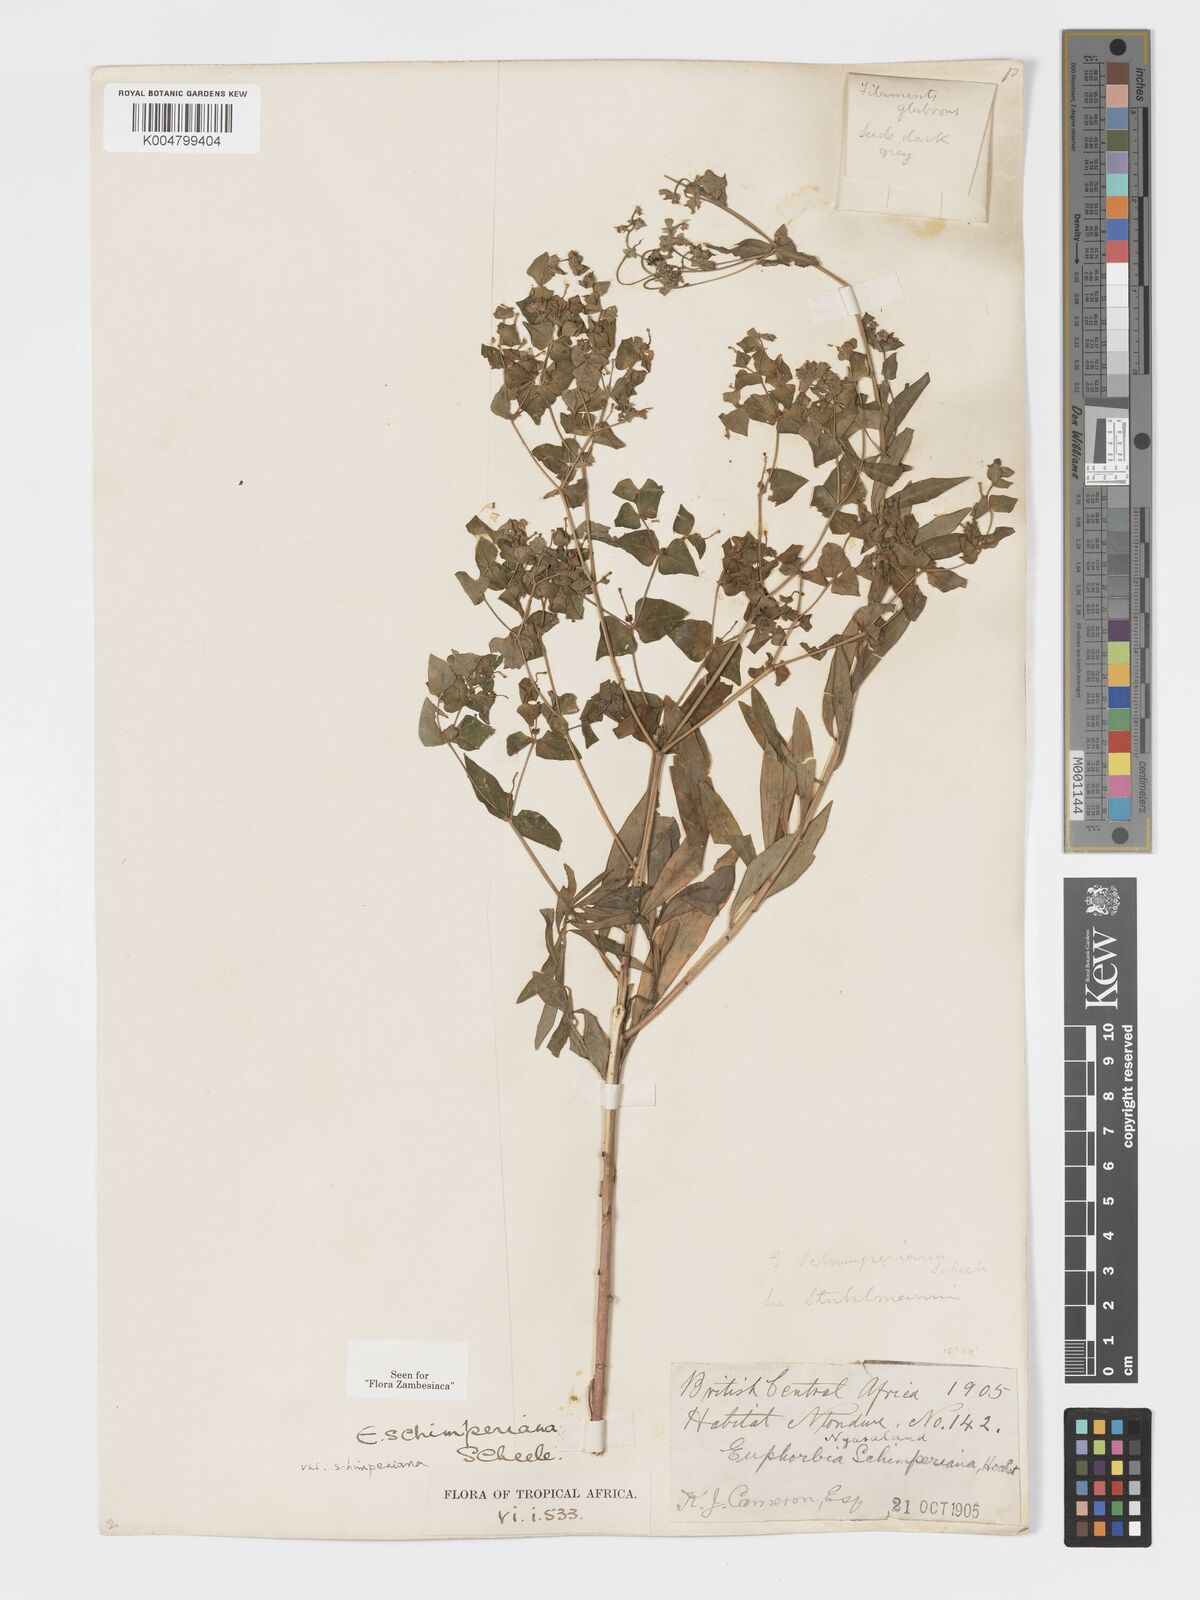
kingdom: Plantae
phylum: Tracheophyta
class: Magnoliopsida
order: Malpighiales
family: Euphorbiaceae
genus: Euphorbia
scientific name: Euphorbia schimperiana
